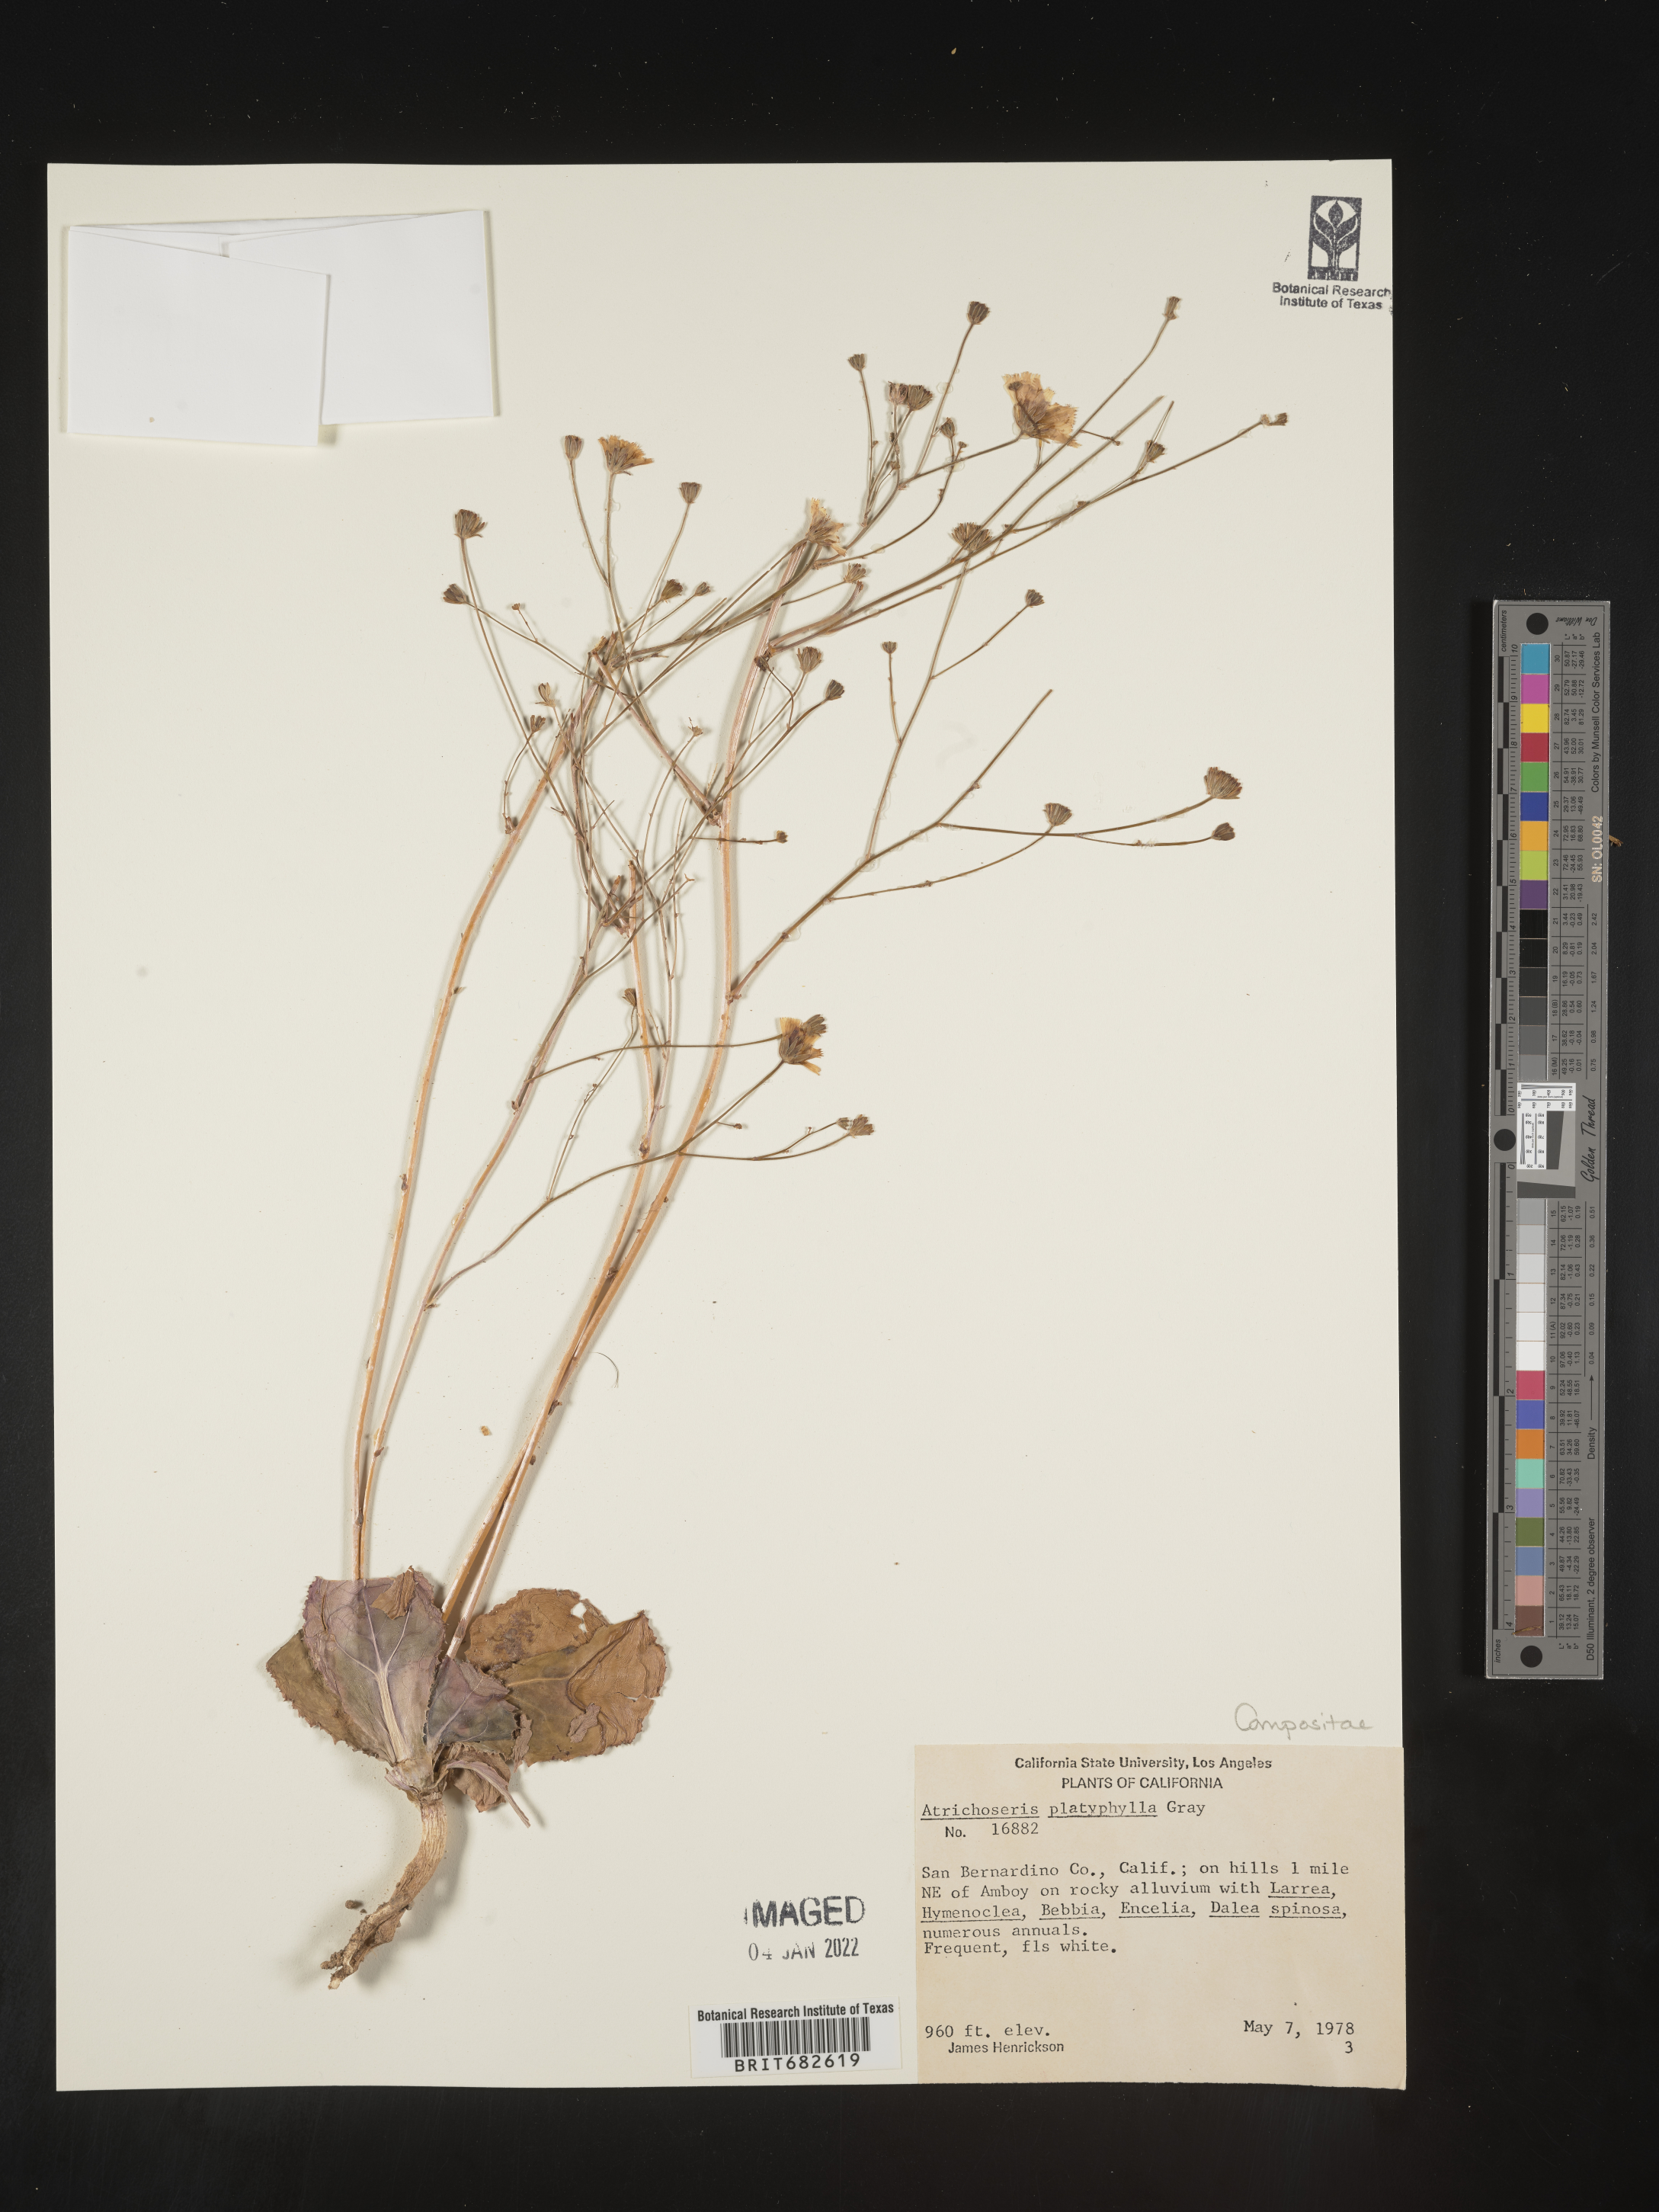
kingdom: Plantae
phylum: Tracheophyta
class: Magnoliopsida
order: Asterales
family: Asteraceae
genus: Atrichoseris
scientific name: Atrichoseris
